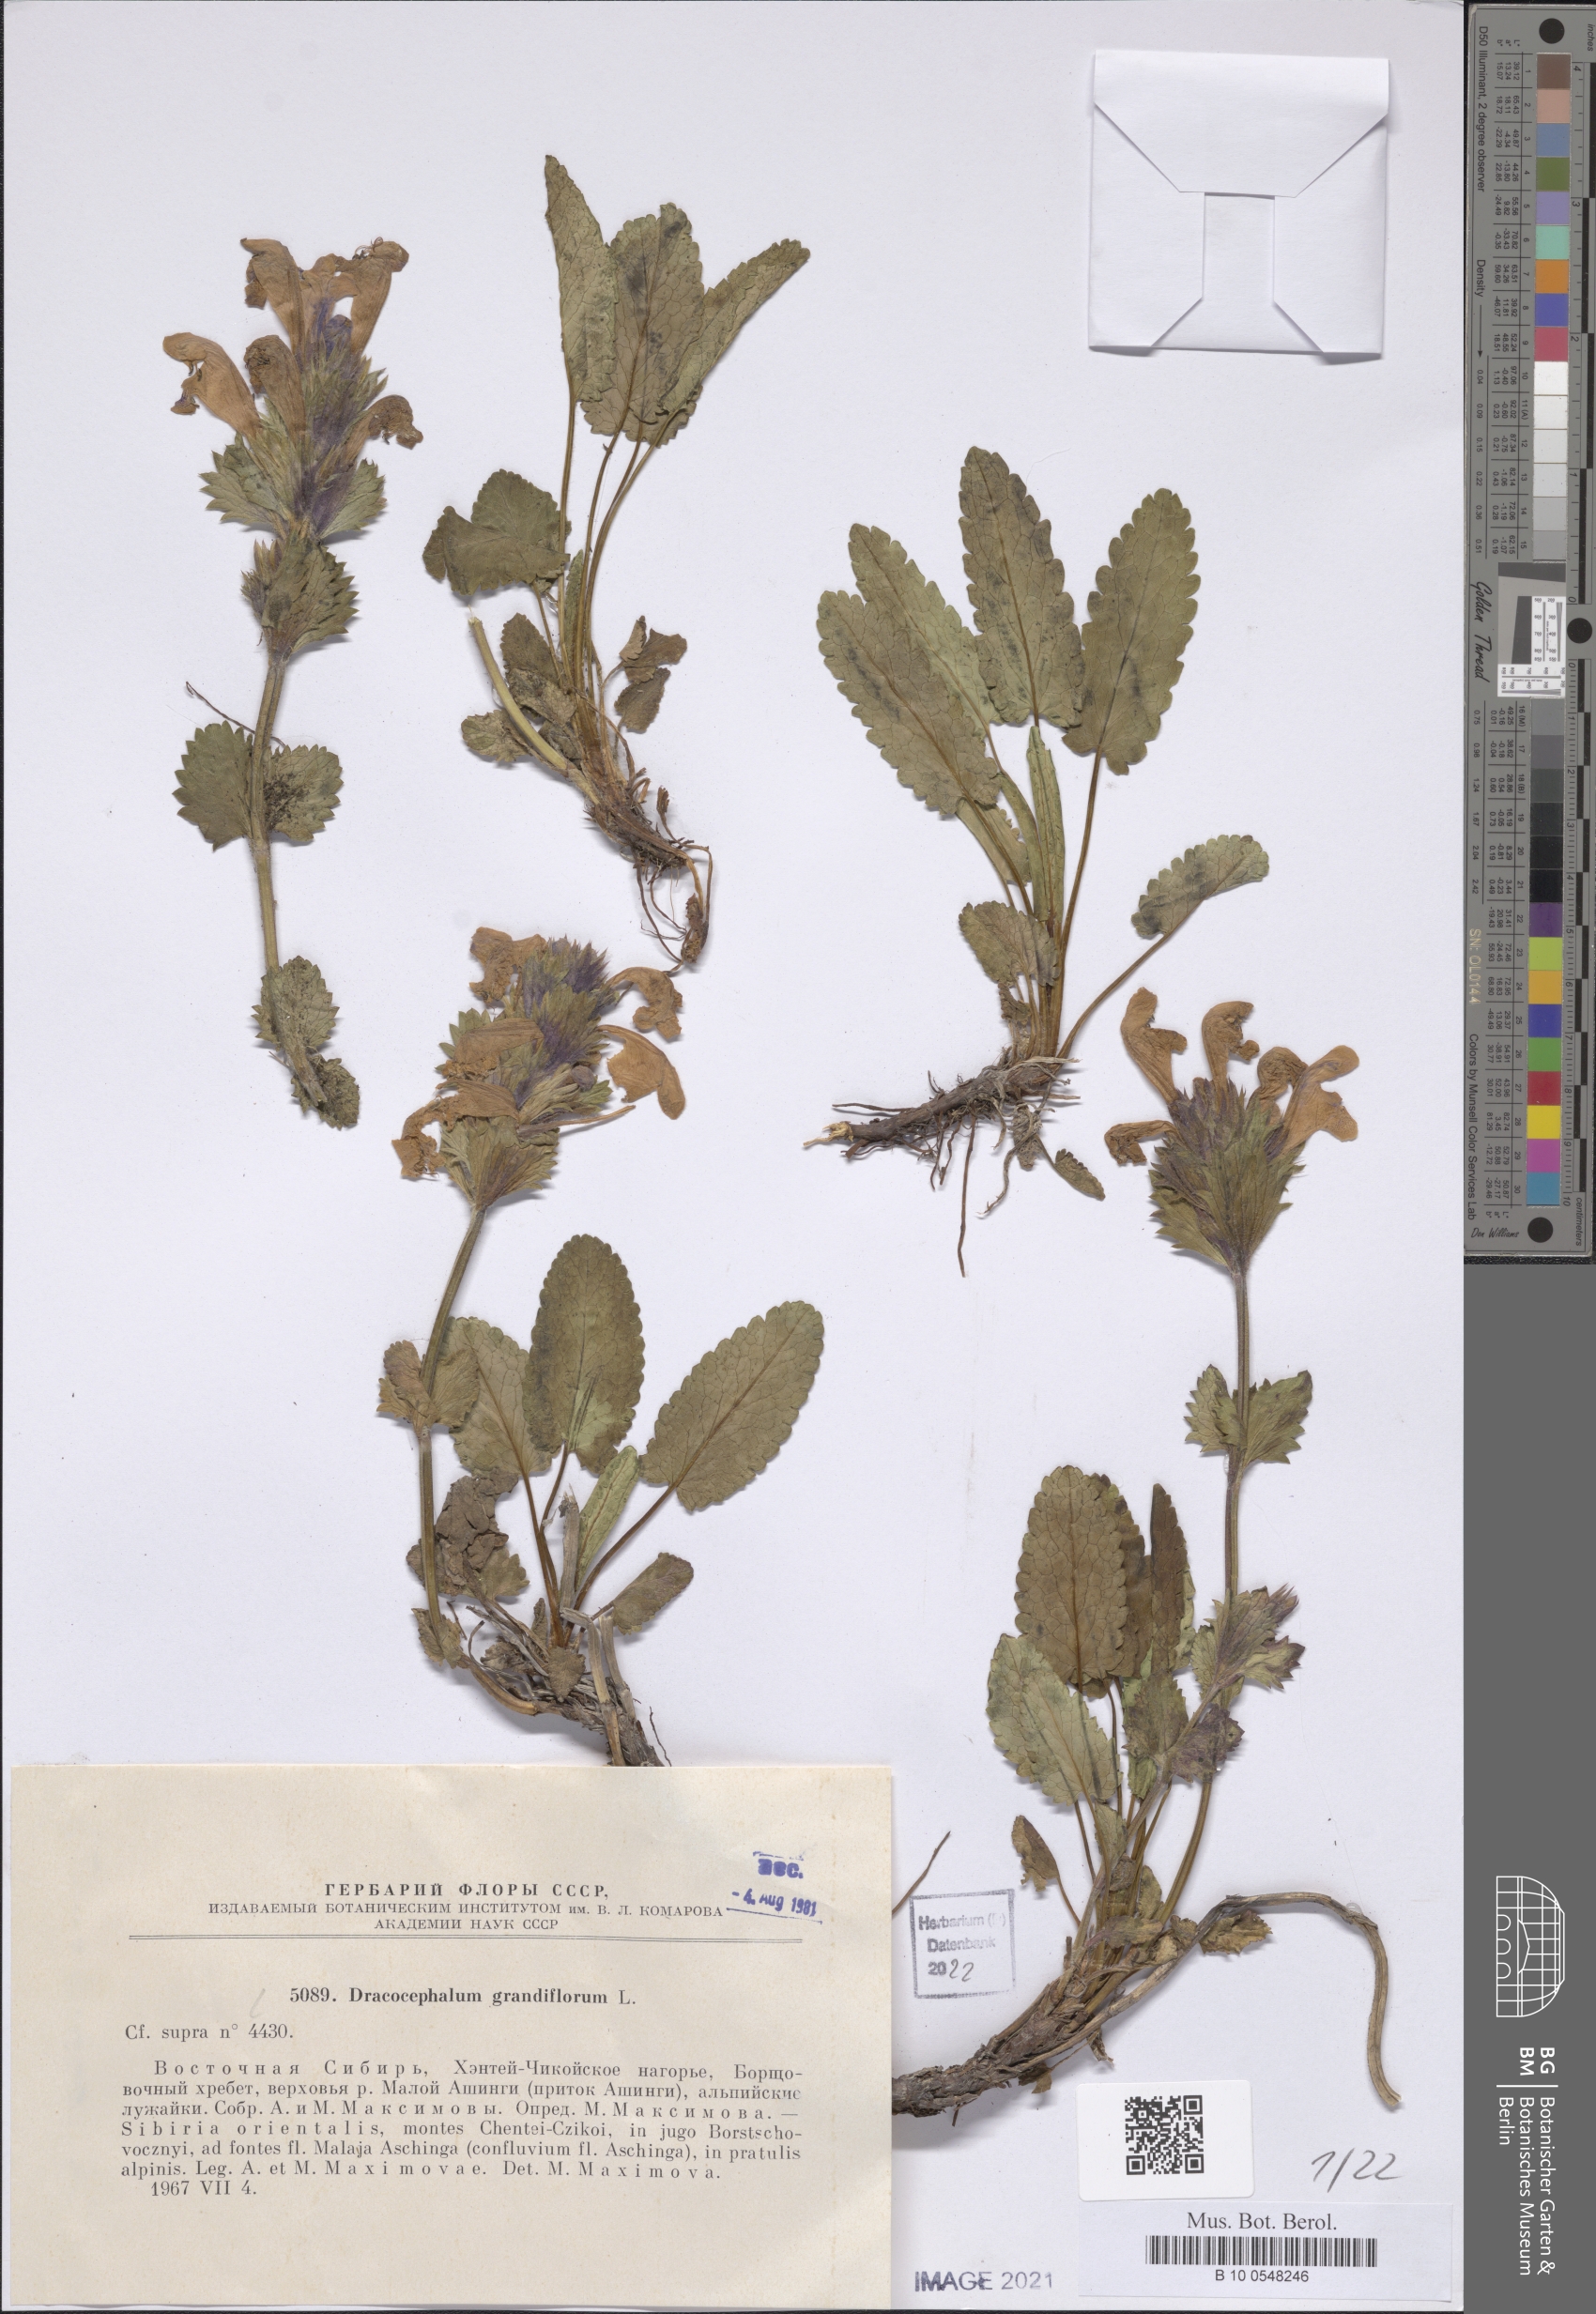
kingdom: Plantae
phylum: Tracheophyta
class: Magnoliopsida
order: Lamiales
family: Lamiaceae
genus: Dracocephalum
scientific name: Dracocephalum grandiflorum
